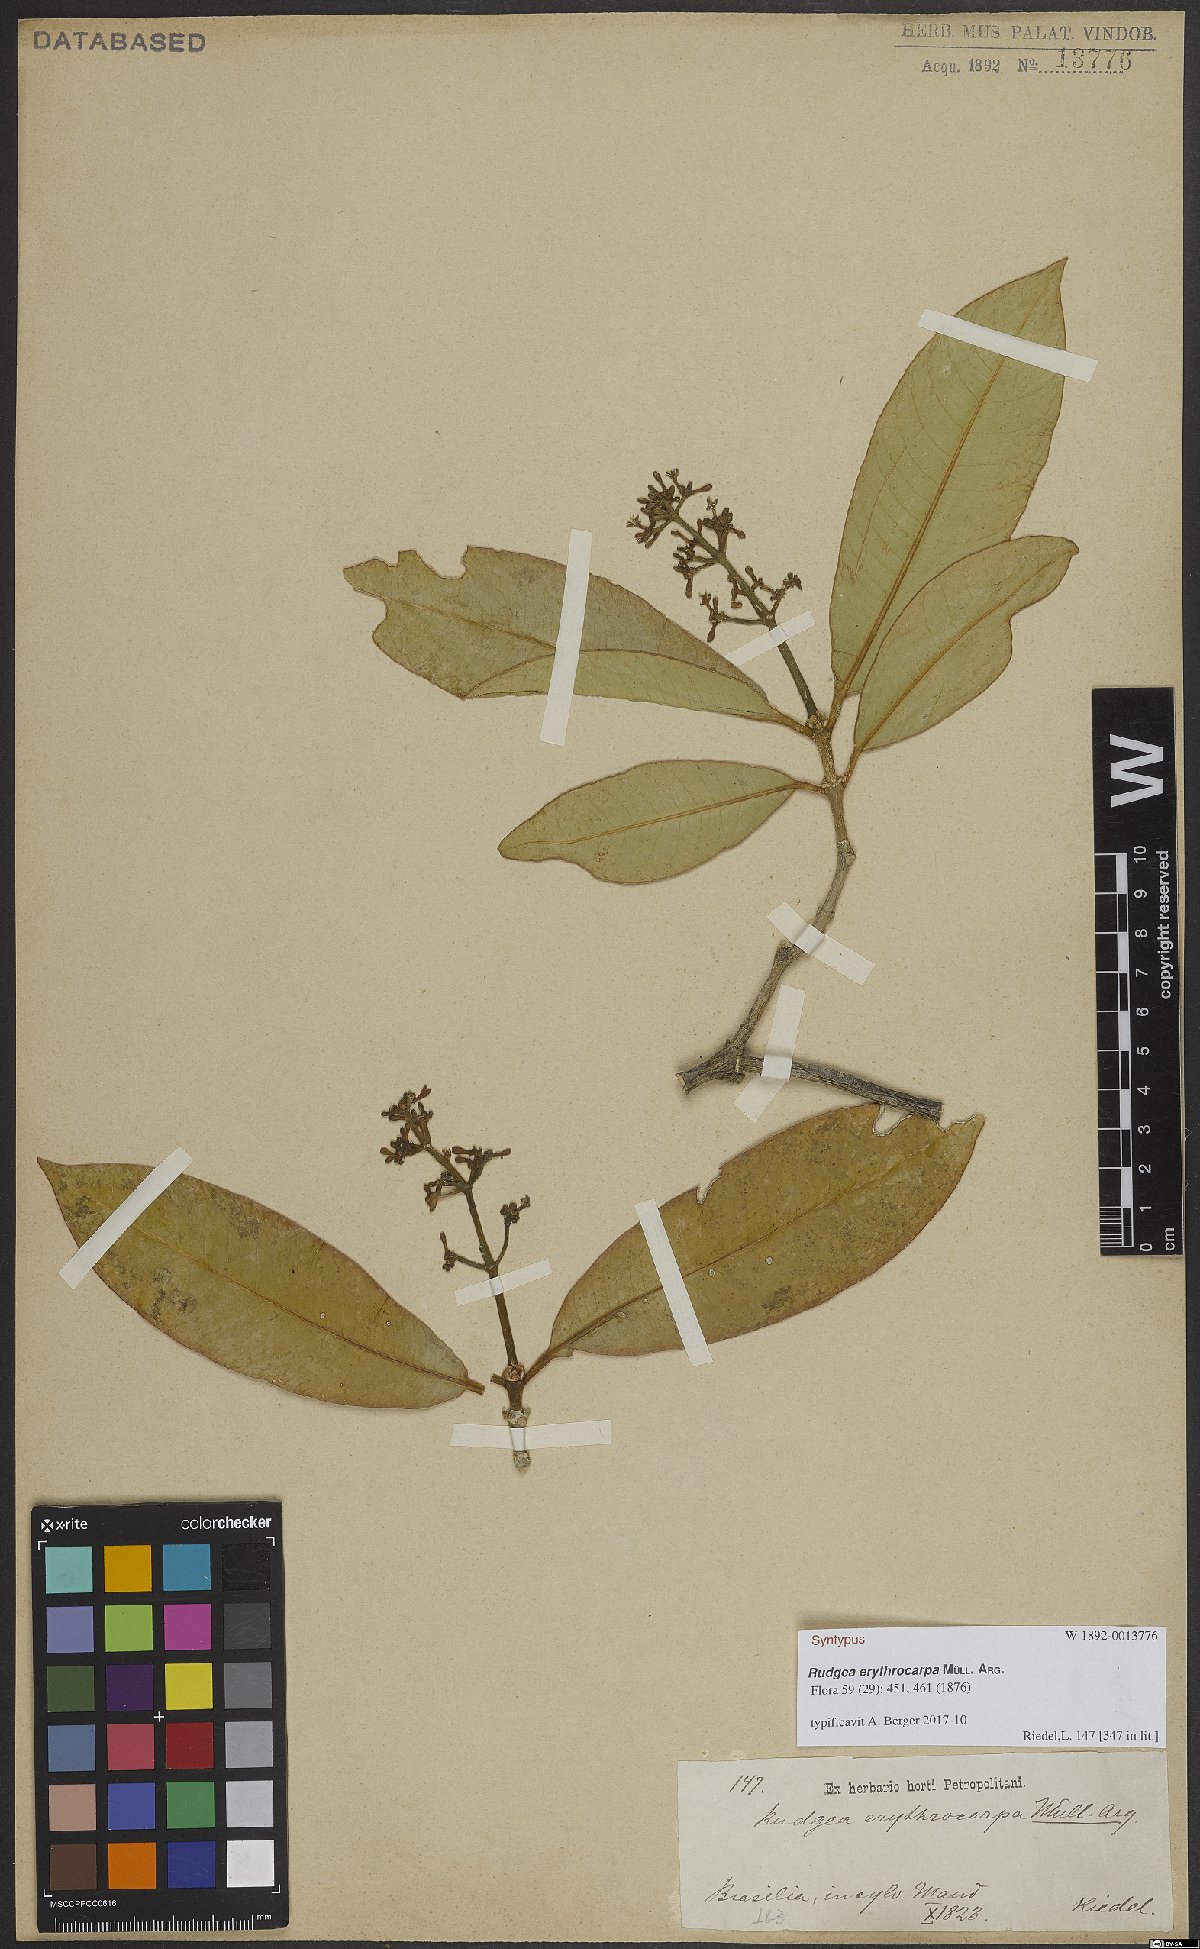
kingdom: Plantae
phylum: Tracheophyta
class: Magnoliopsida
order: Gentianales
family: Rubiaceae
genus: Rudgea
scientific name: Rudgea erythrocarpa
